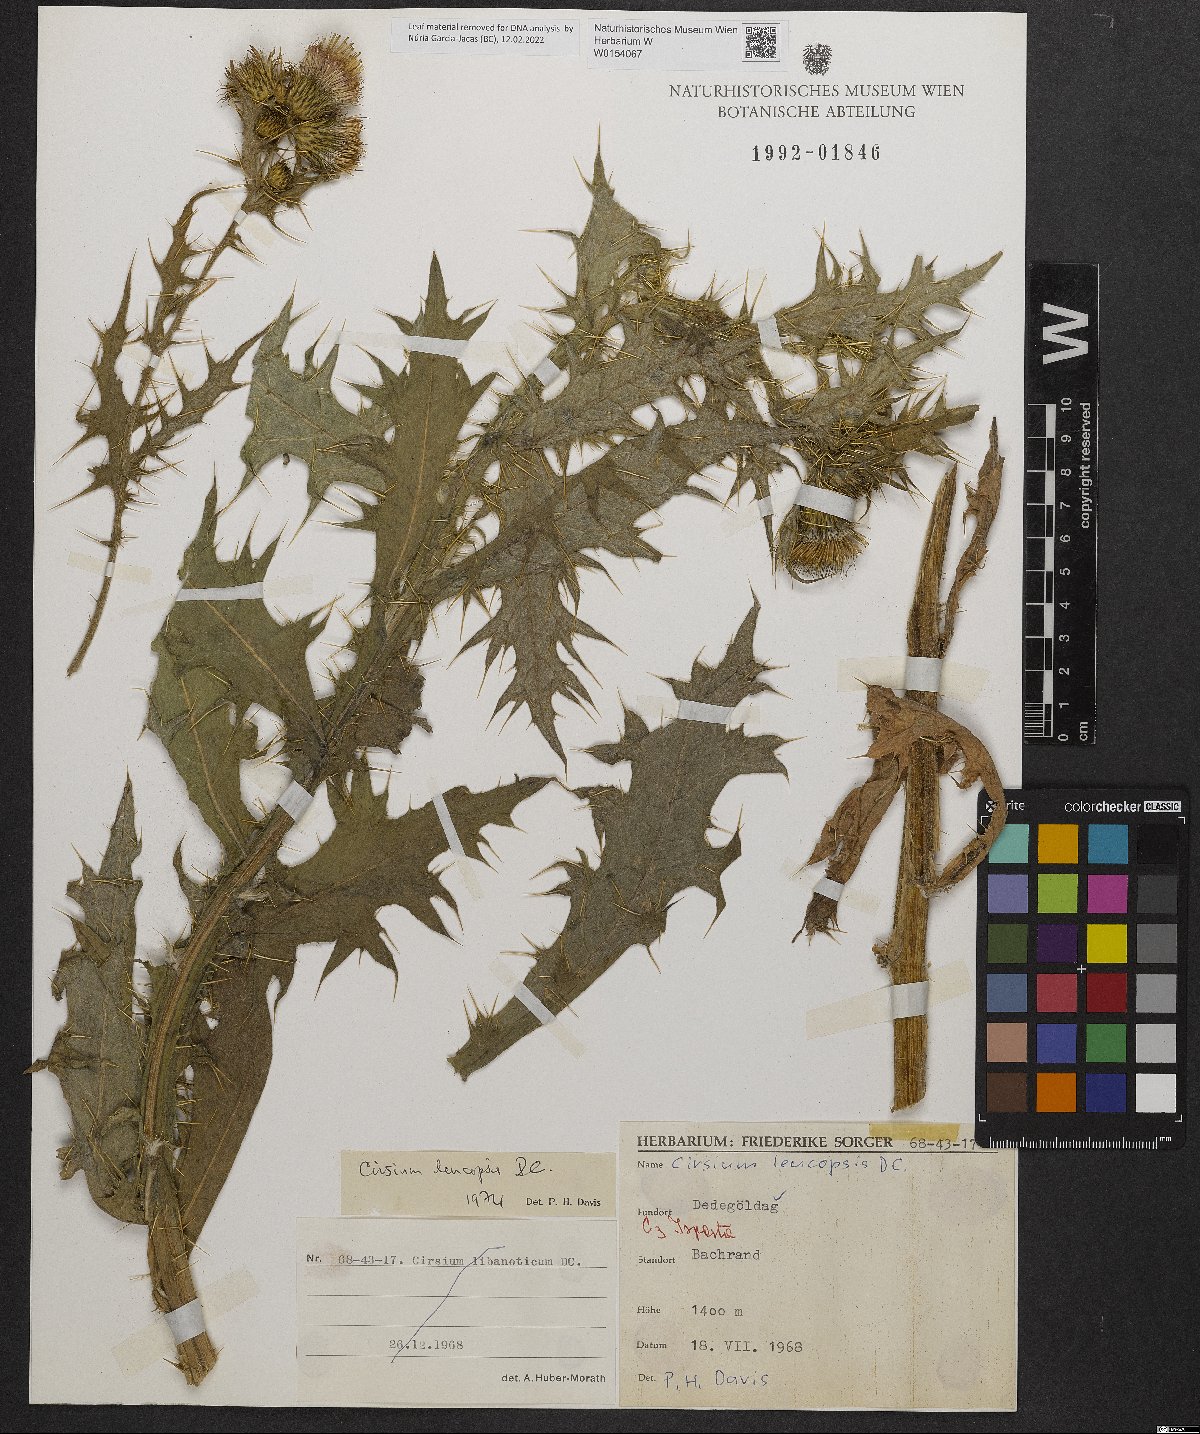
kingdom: Plantae
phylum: Tracheophyta
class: Magnoliopsida
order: Asterales
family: Asteraceae
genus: Cirsium
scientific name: Cirsium leucopsis
